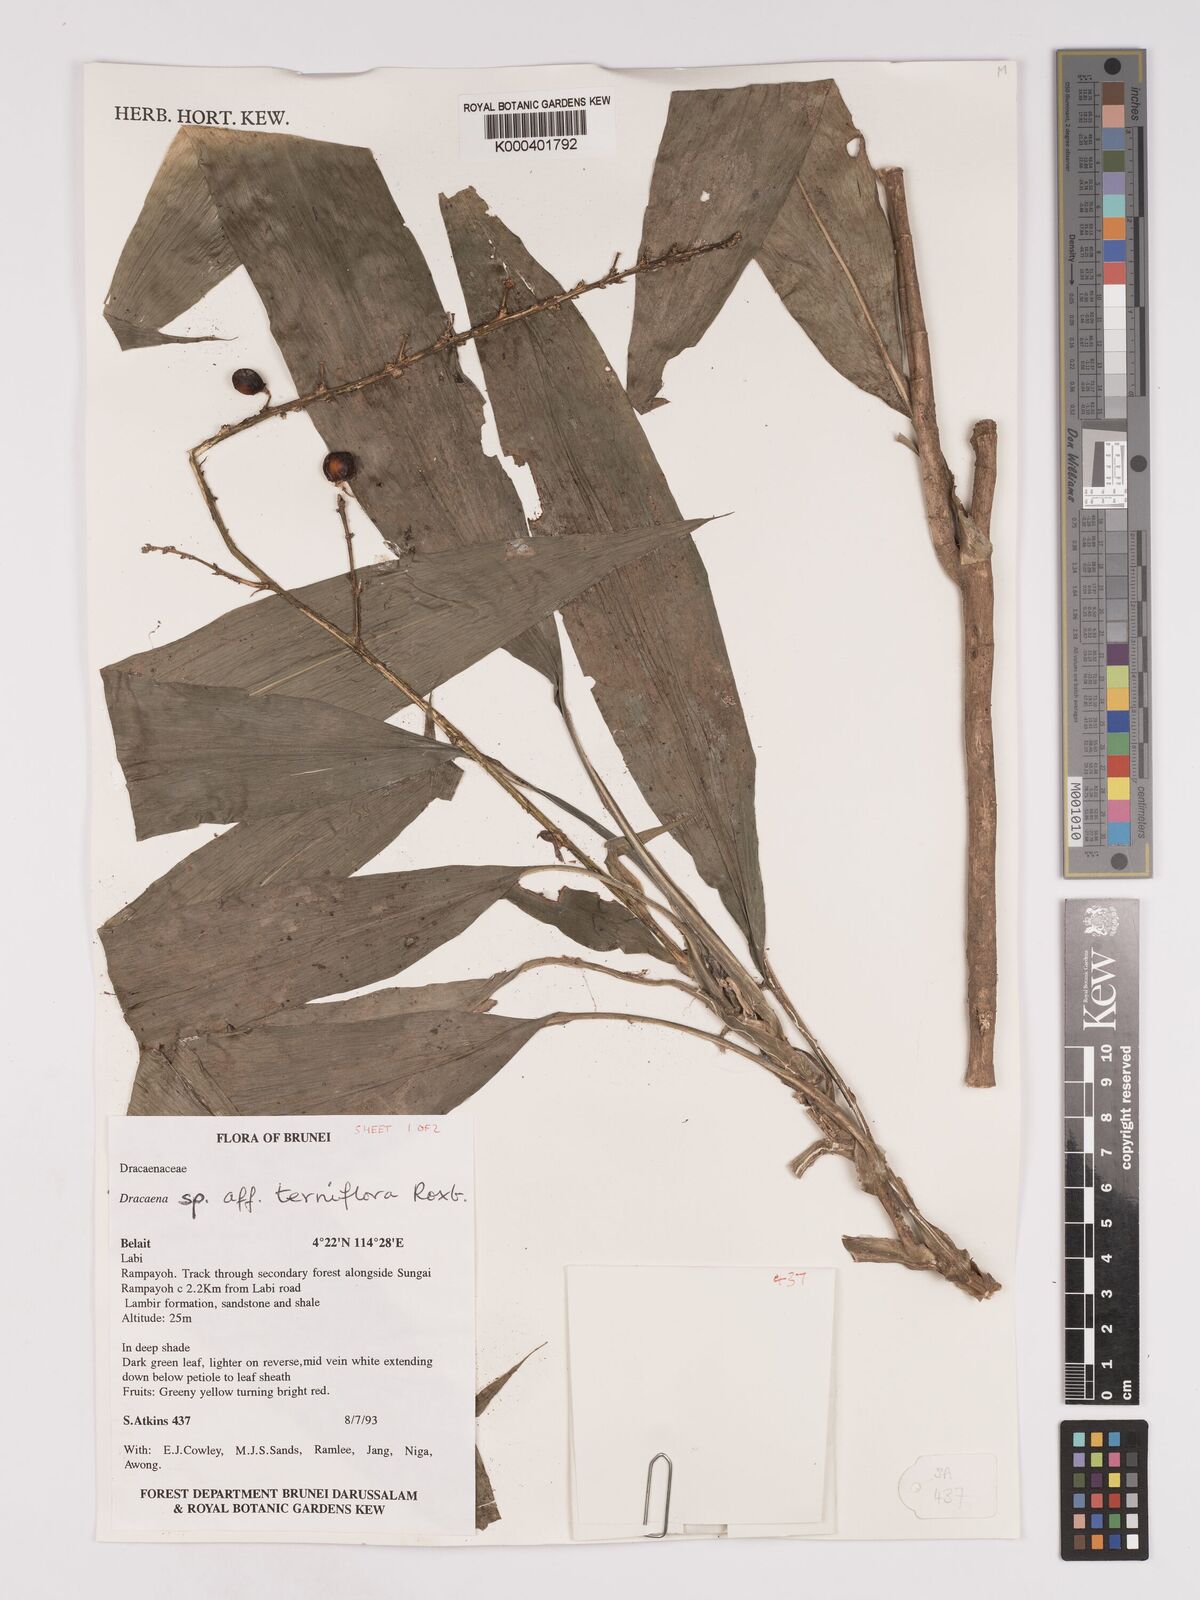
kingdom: Plantae
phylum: Tracheophyta
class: Liliopsida
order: Asparagales
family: Asparagaceae
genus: Dracaena
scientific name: Dracaena terniflora
